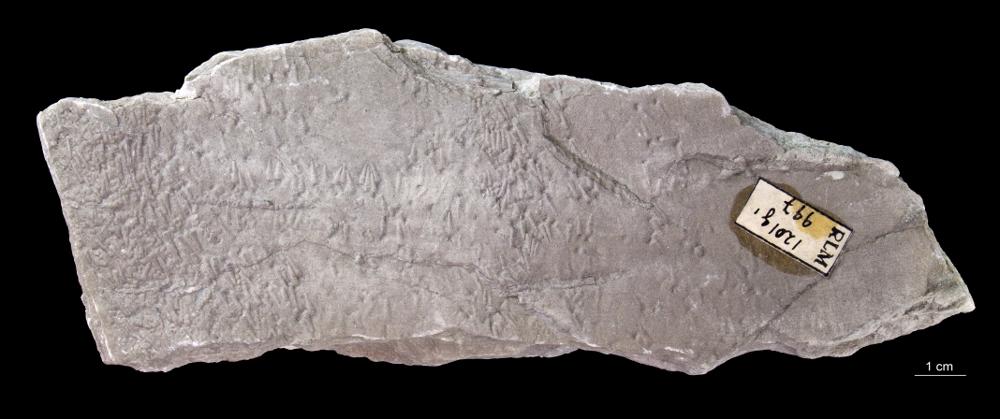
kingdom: Animalia
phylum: Annelida
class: Polychaeta
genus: Volborthella
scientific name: Volborthella tenuis
